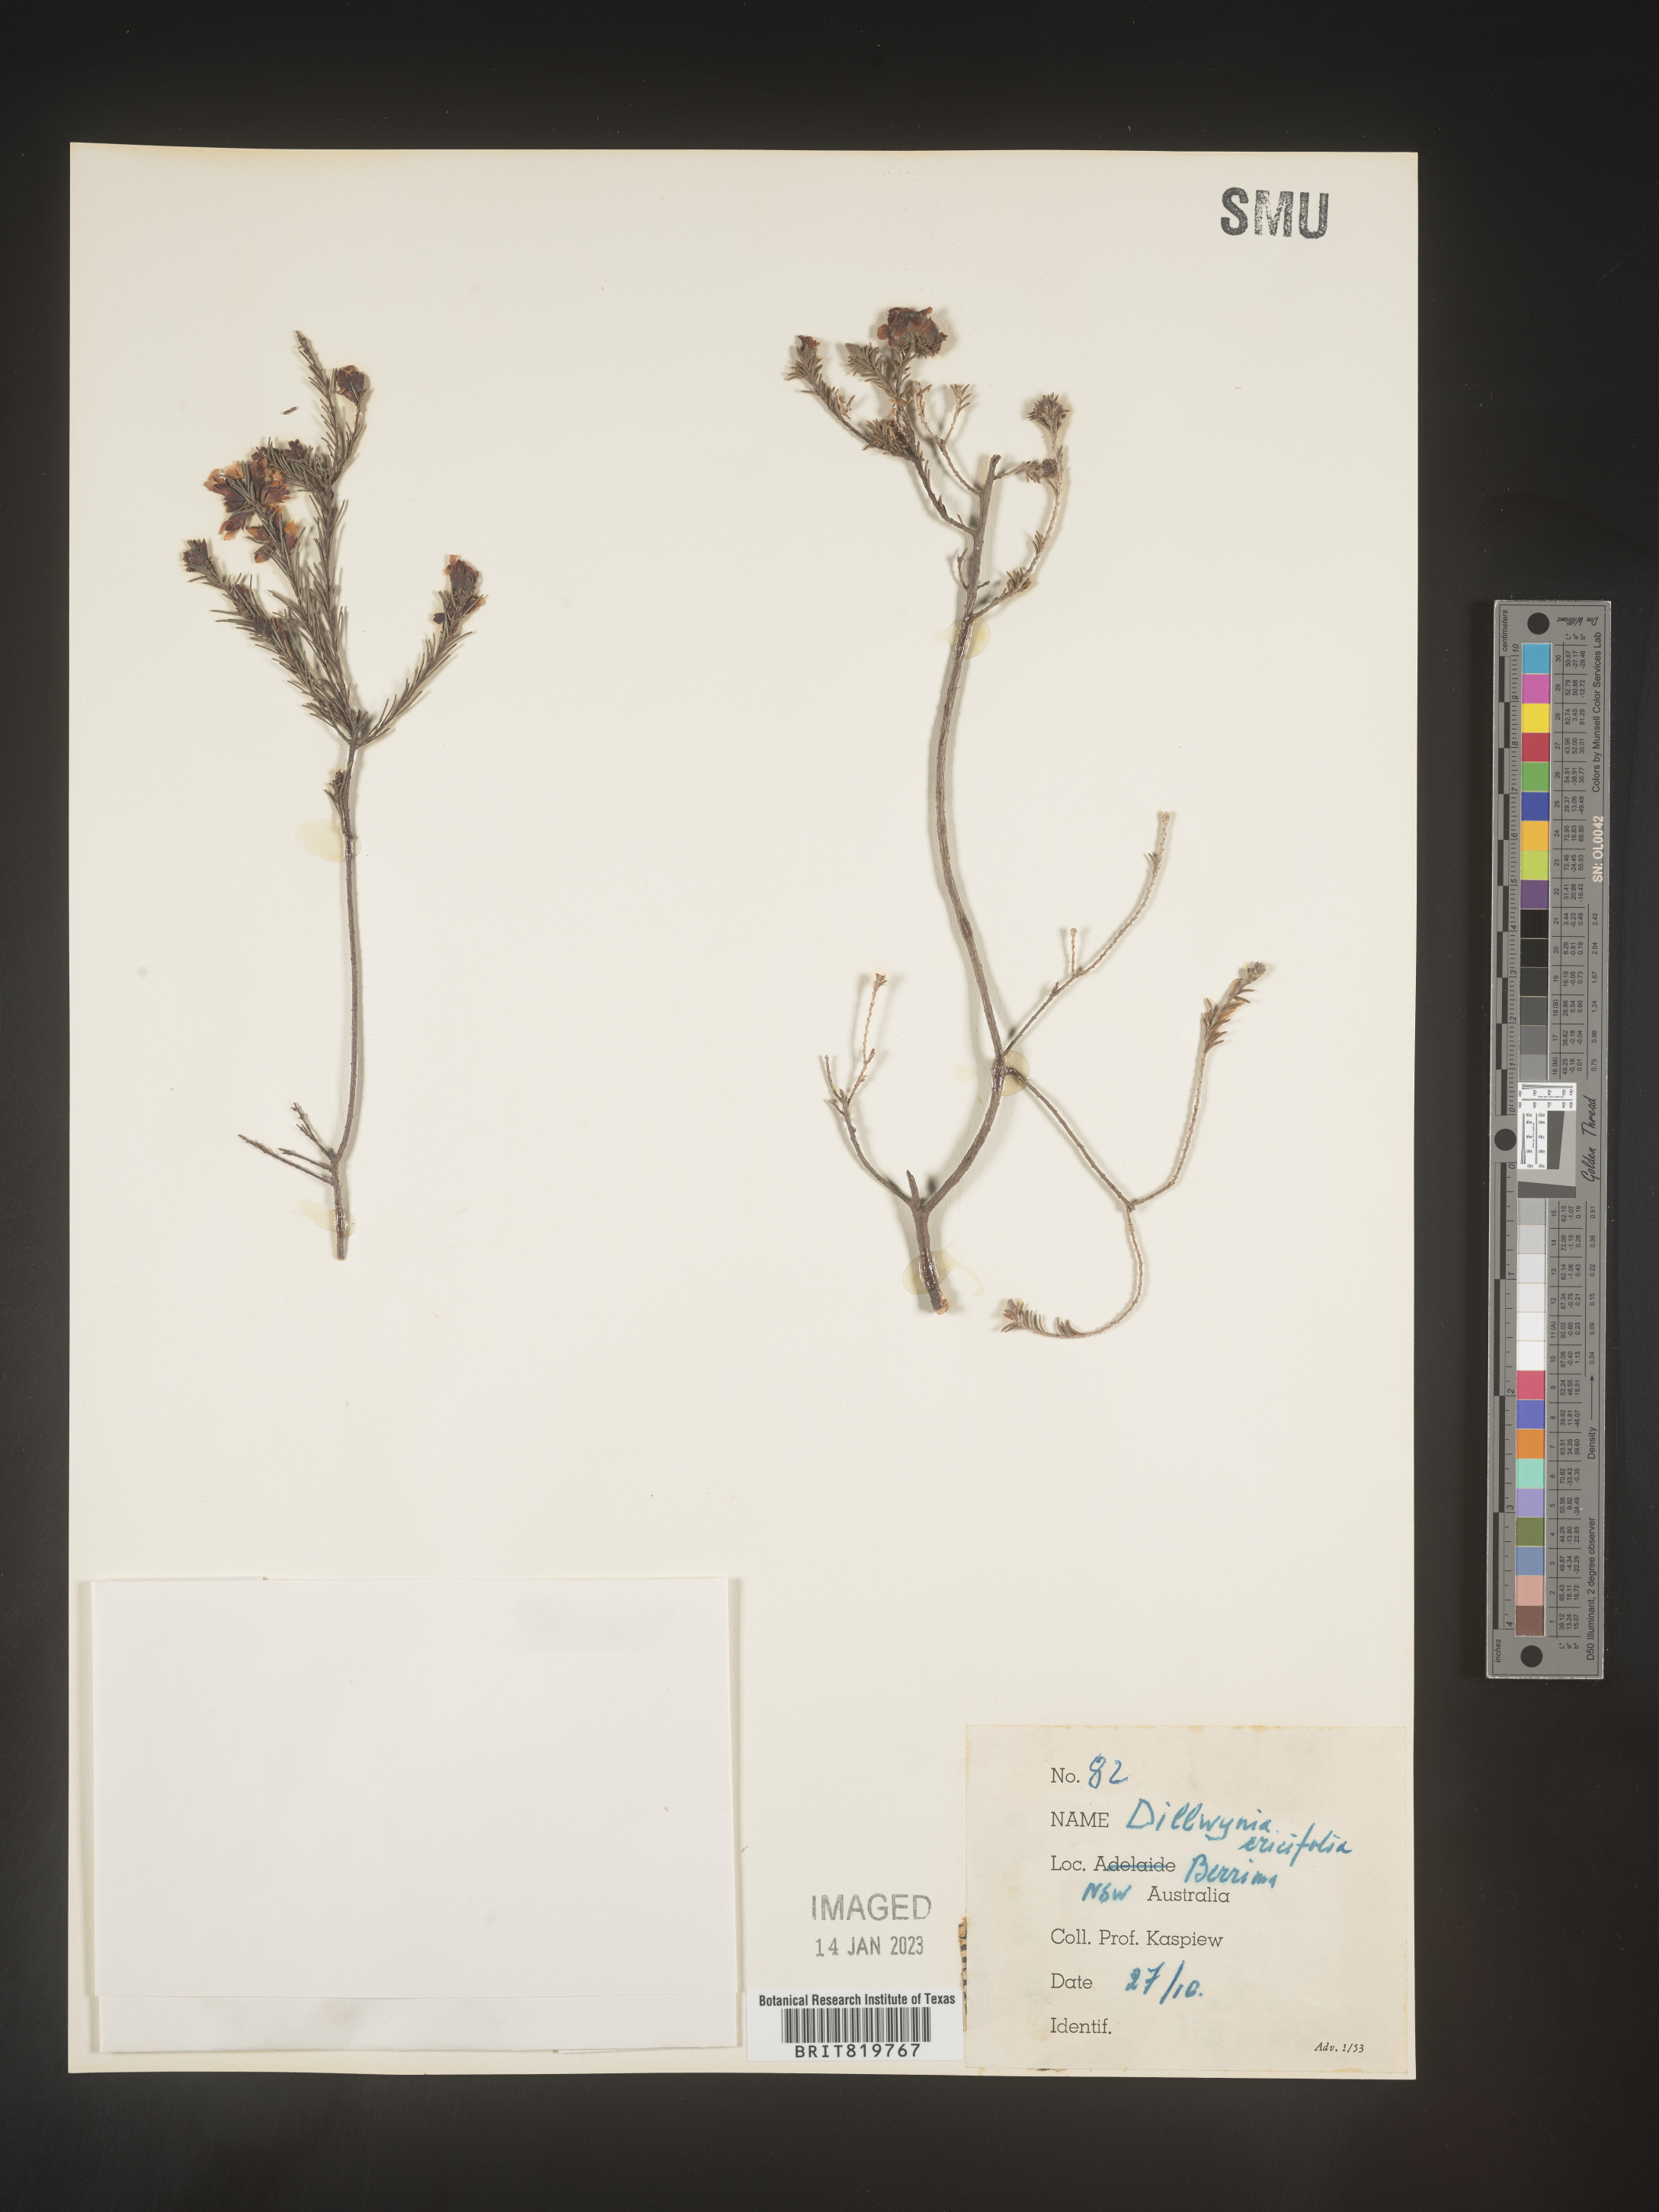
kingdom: Plantae
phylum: Tracheophyta
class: Magnoliopsida
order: Fabales
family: Fabaceae
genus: Dillwynia
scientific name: Dillwynia
